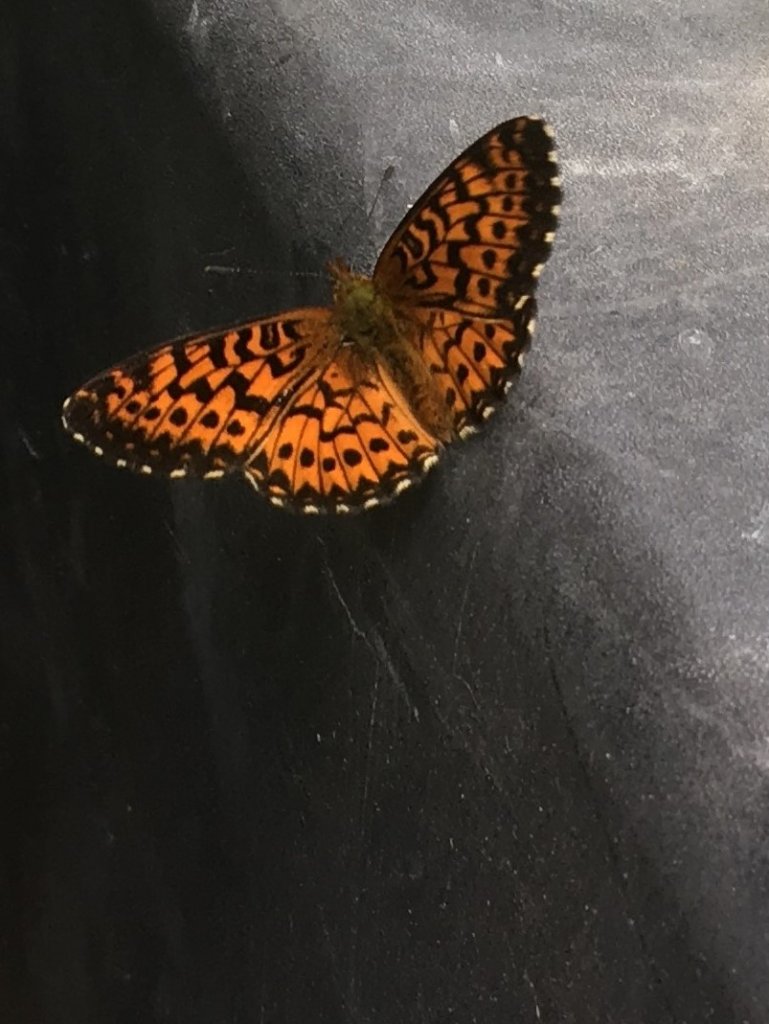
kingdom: Animalia
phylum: Arthropoda
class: Insecta
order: Lepidoptera
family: Nymphalidae
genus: Boloria
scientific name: Boloria chariclea
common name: Arctic Fritillary
